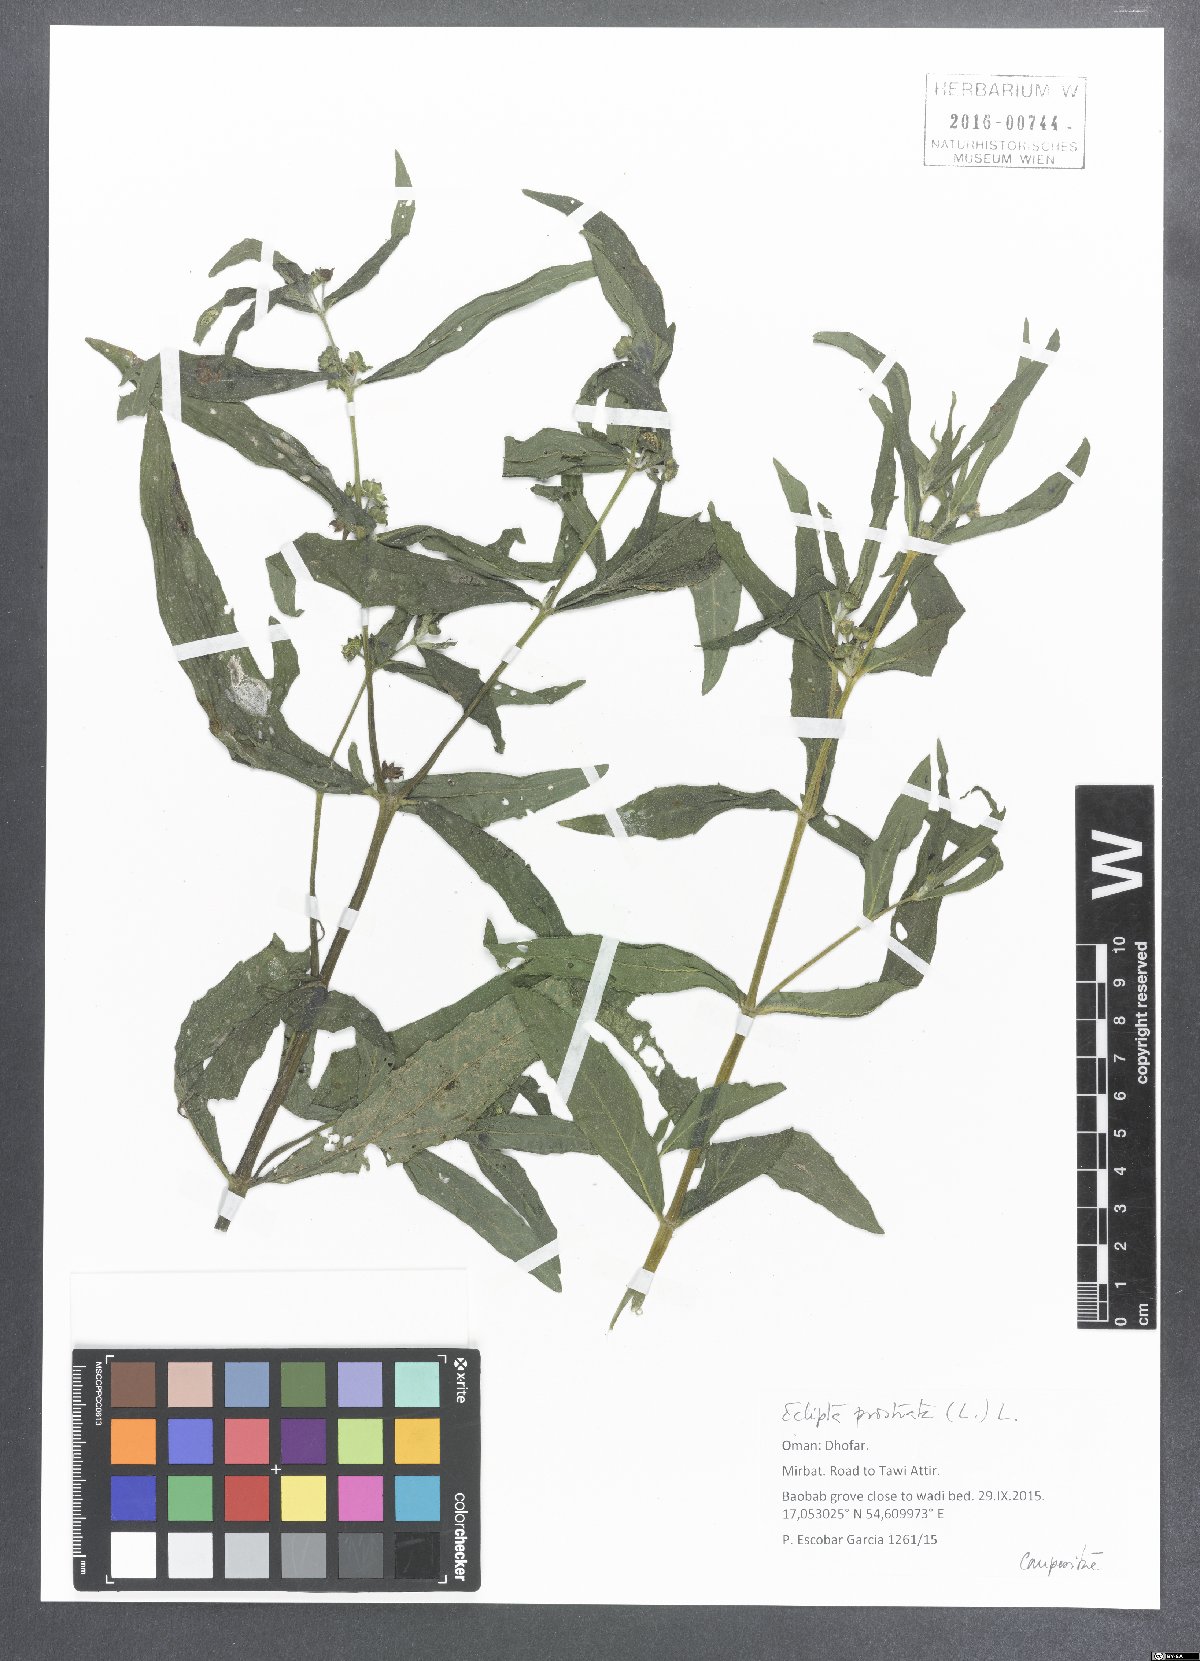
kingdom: Plantae
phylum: Tracheophyta
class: Magnoliopsida
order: Asterales
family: Asteraceae
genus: Eclipta
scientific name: Eclipta prostrata
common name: False daisy
